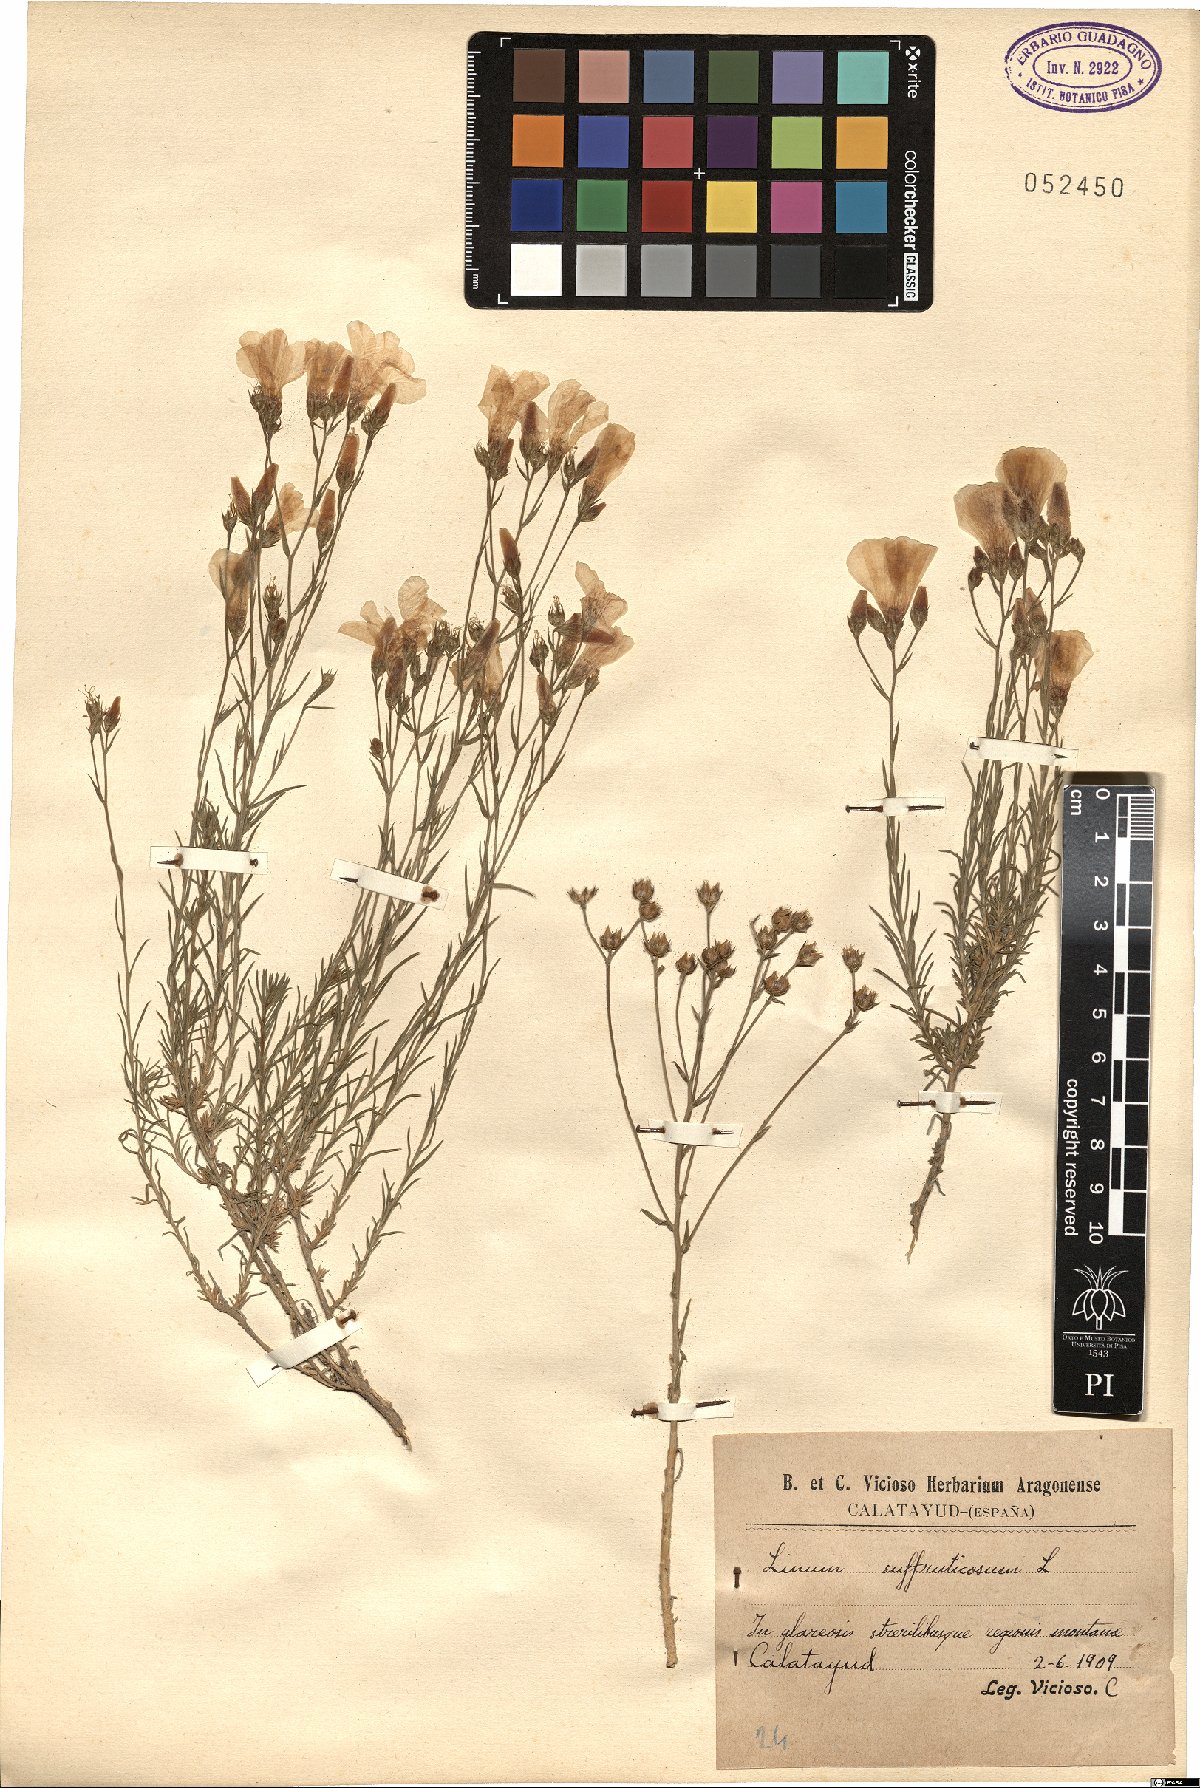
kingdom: Plantae
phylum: Tracheophyta
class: Magnoliopsida
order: Malpighiales
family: Linaceae
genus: Linum
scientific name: Linum suffruticosum
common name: White flax
